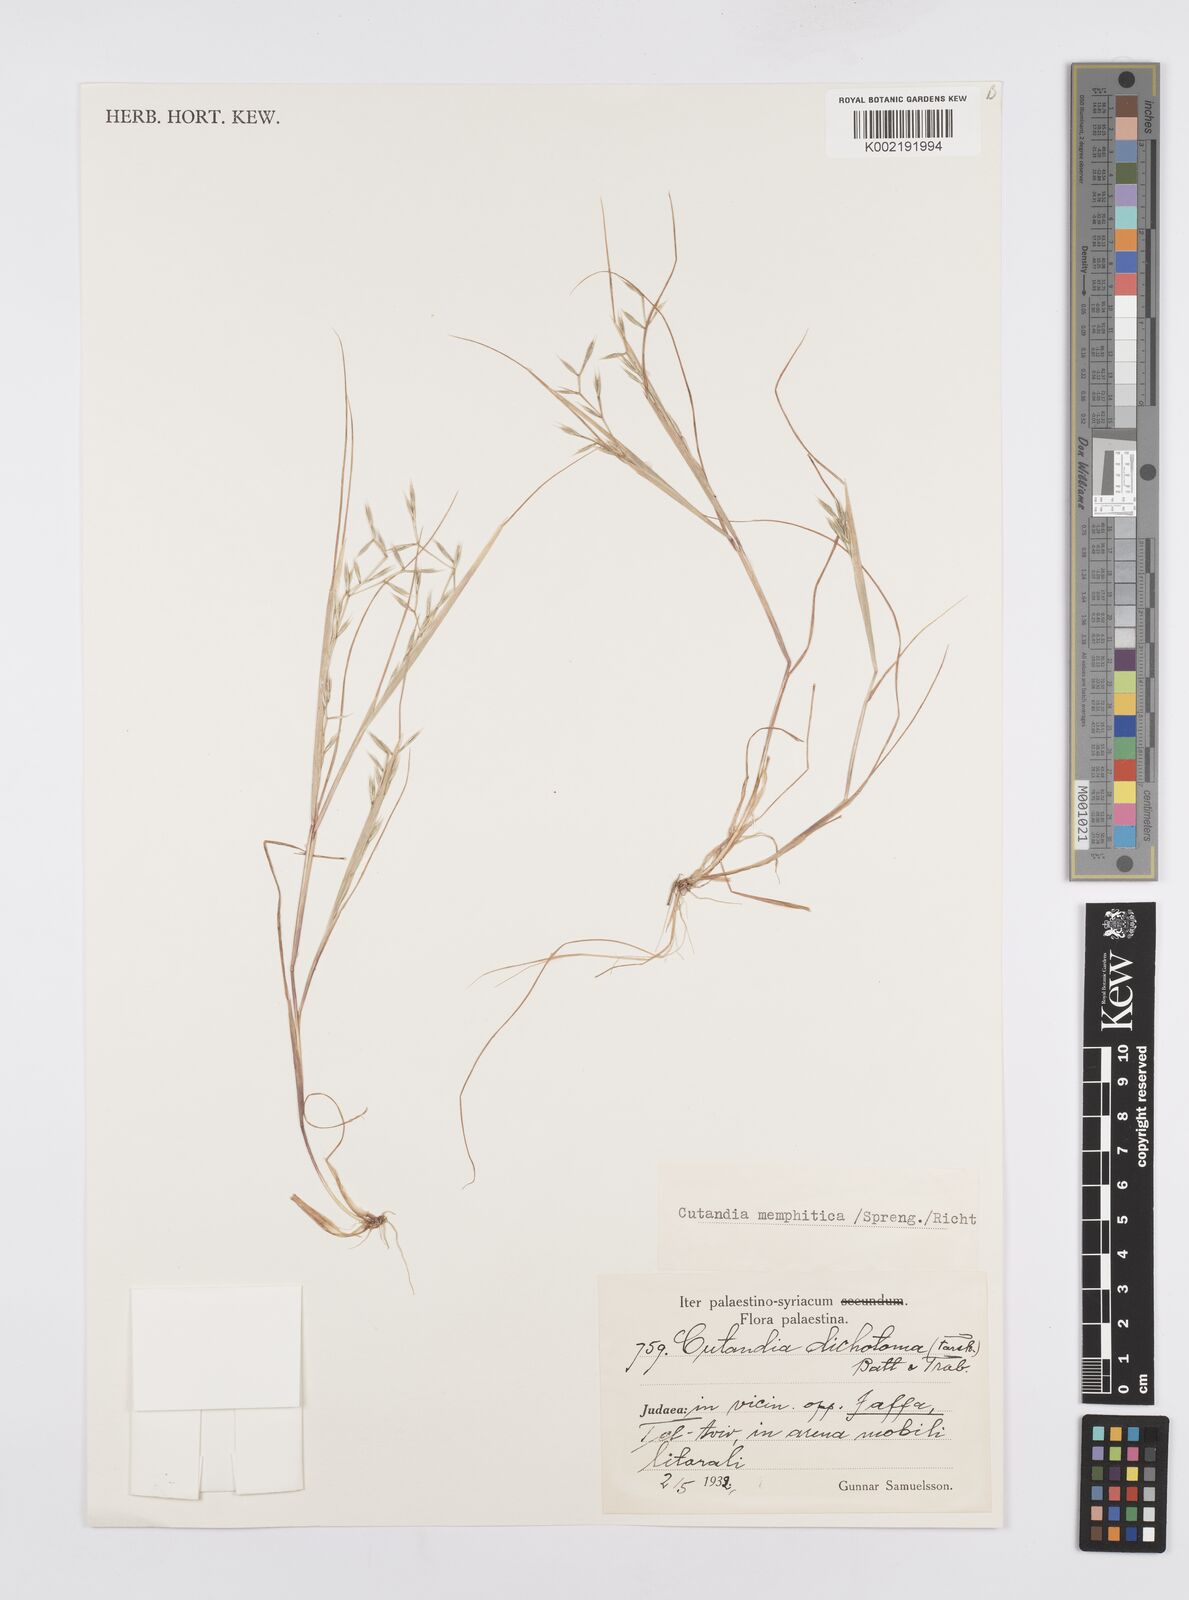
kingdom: Plantae
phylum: Tracheophyta
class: Liliopsida
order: Poales
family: Poaceae
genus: Cutandia
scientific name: Cutandia memphitica
